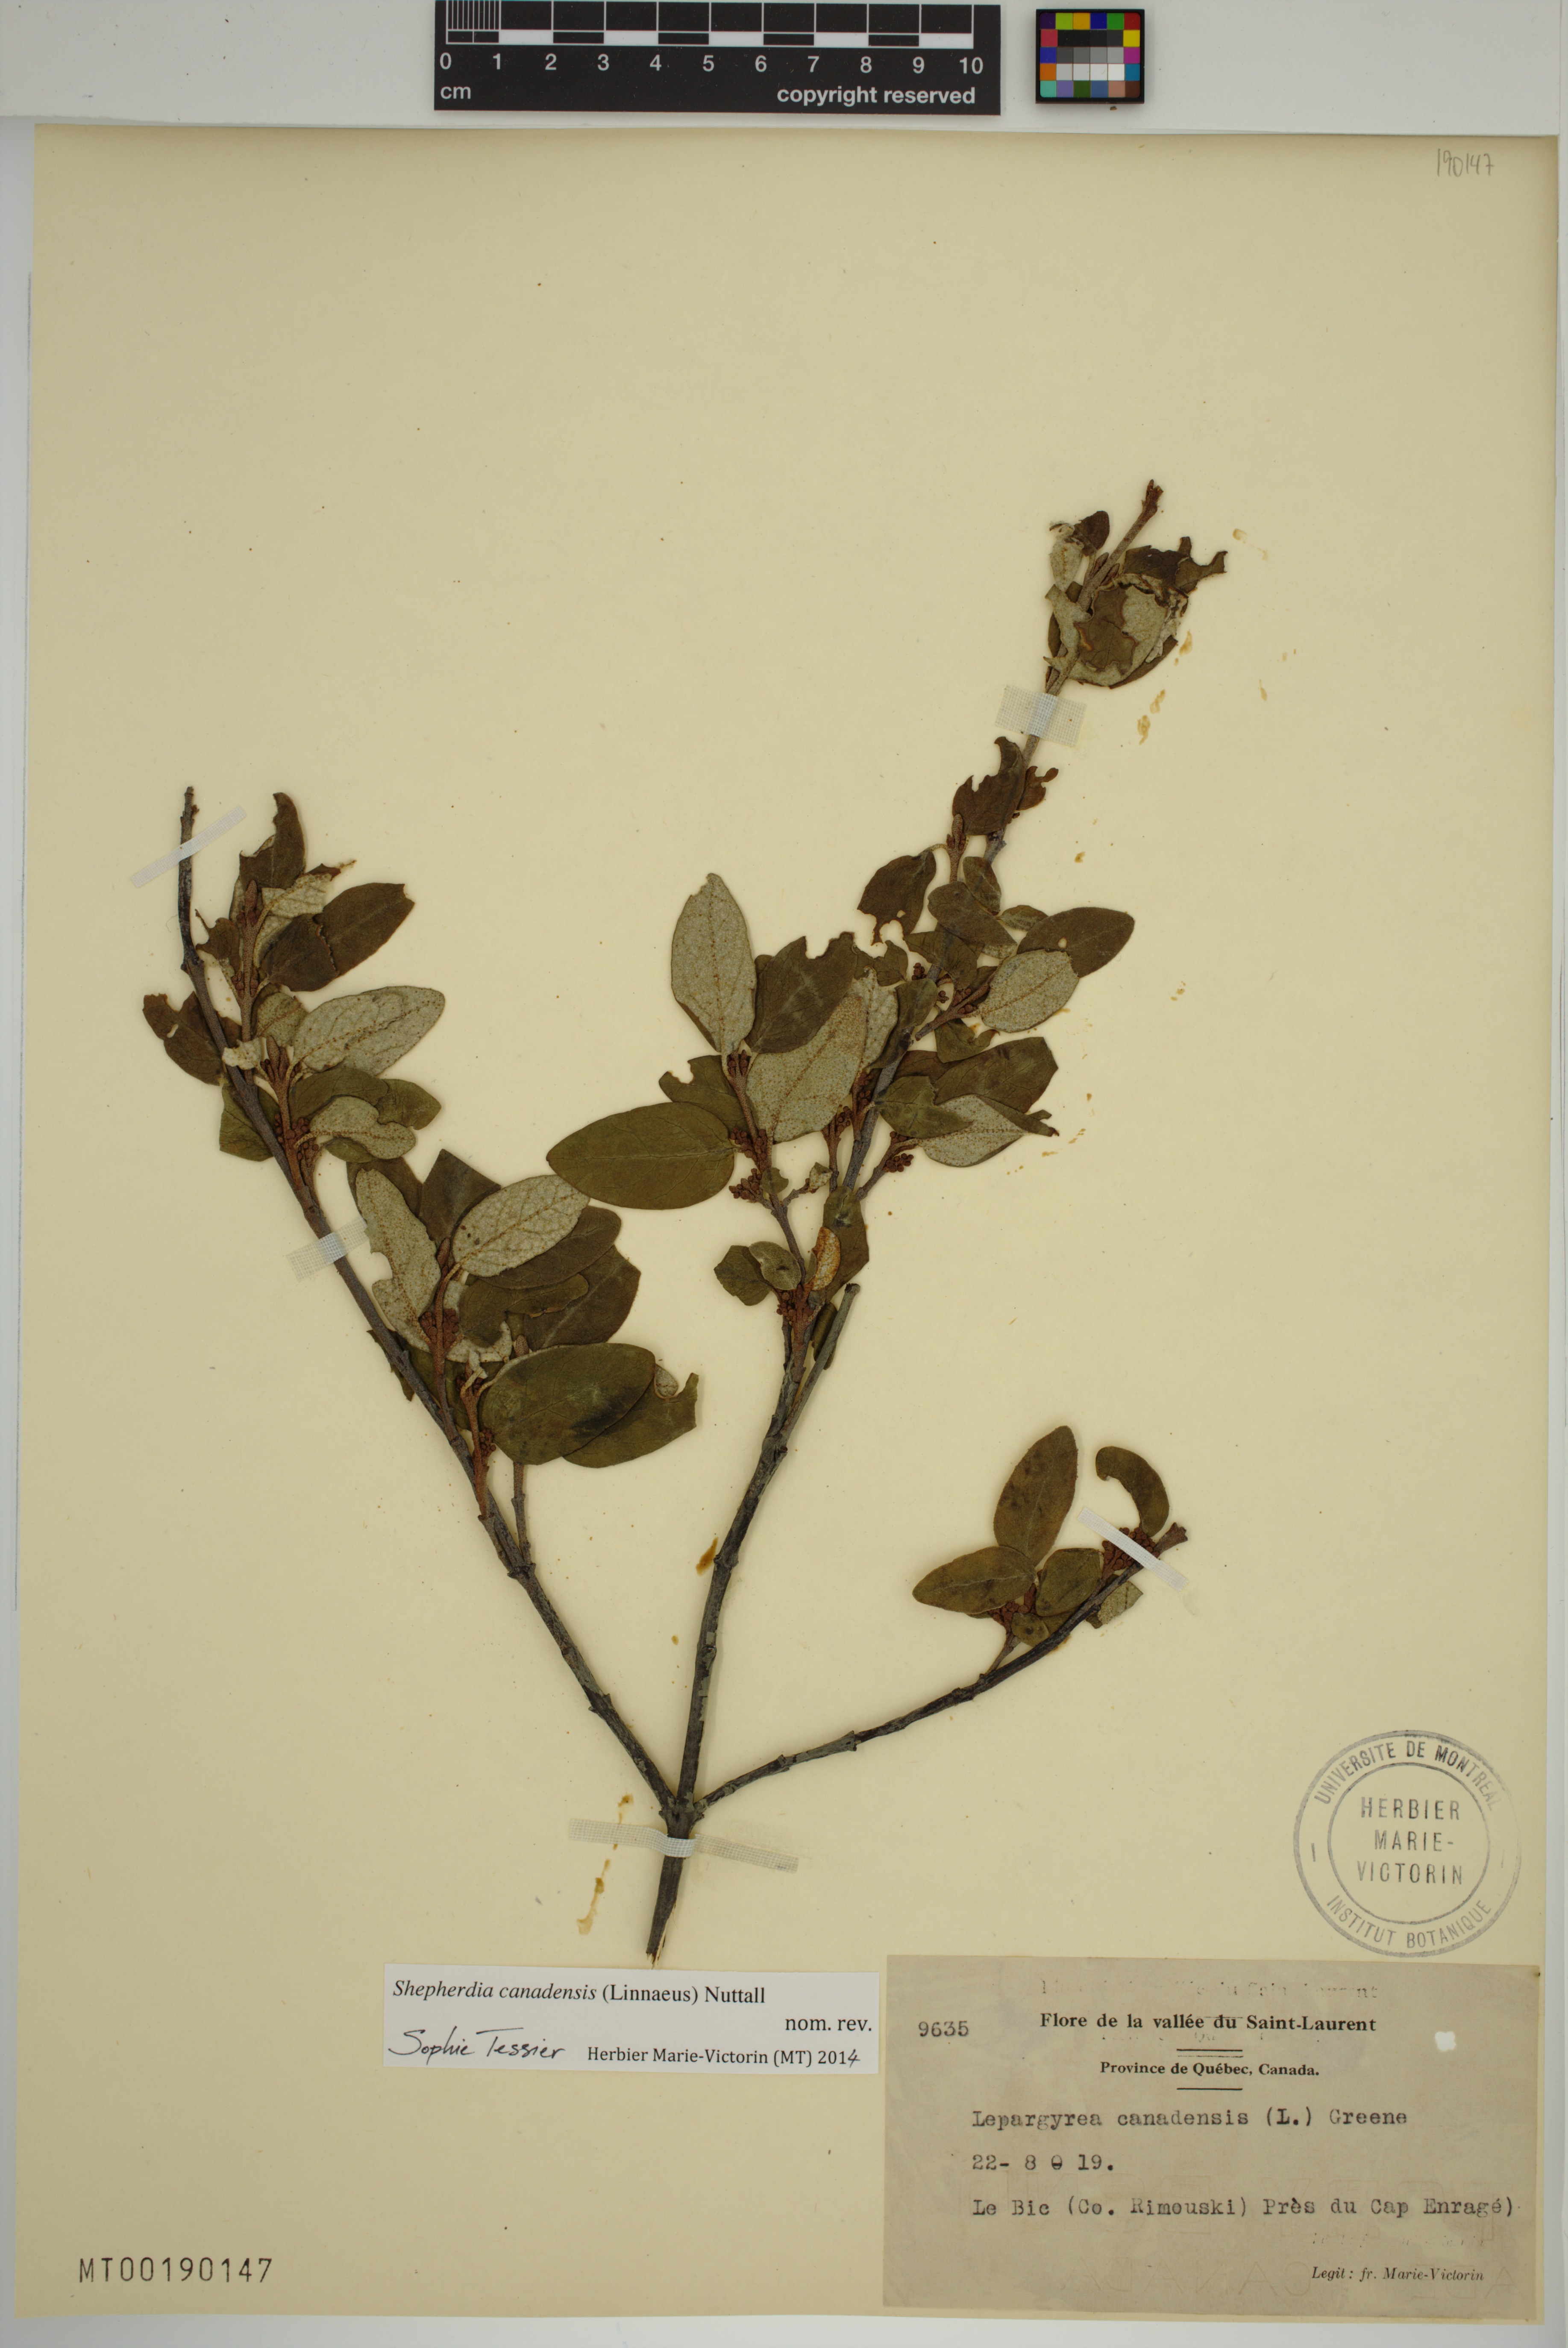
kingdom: Plantae
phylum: Tracheophyta
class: Magnoliopsida
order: Rosales
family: Elaeagnaceae
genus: Shepherdia
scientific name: Shepherdia canadensis
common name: Soapberry
